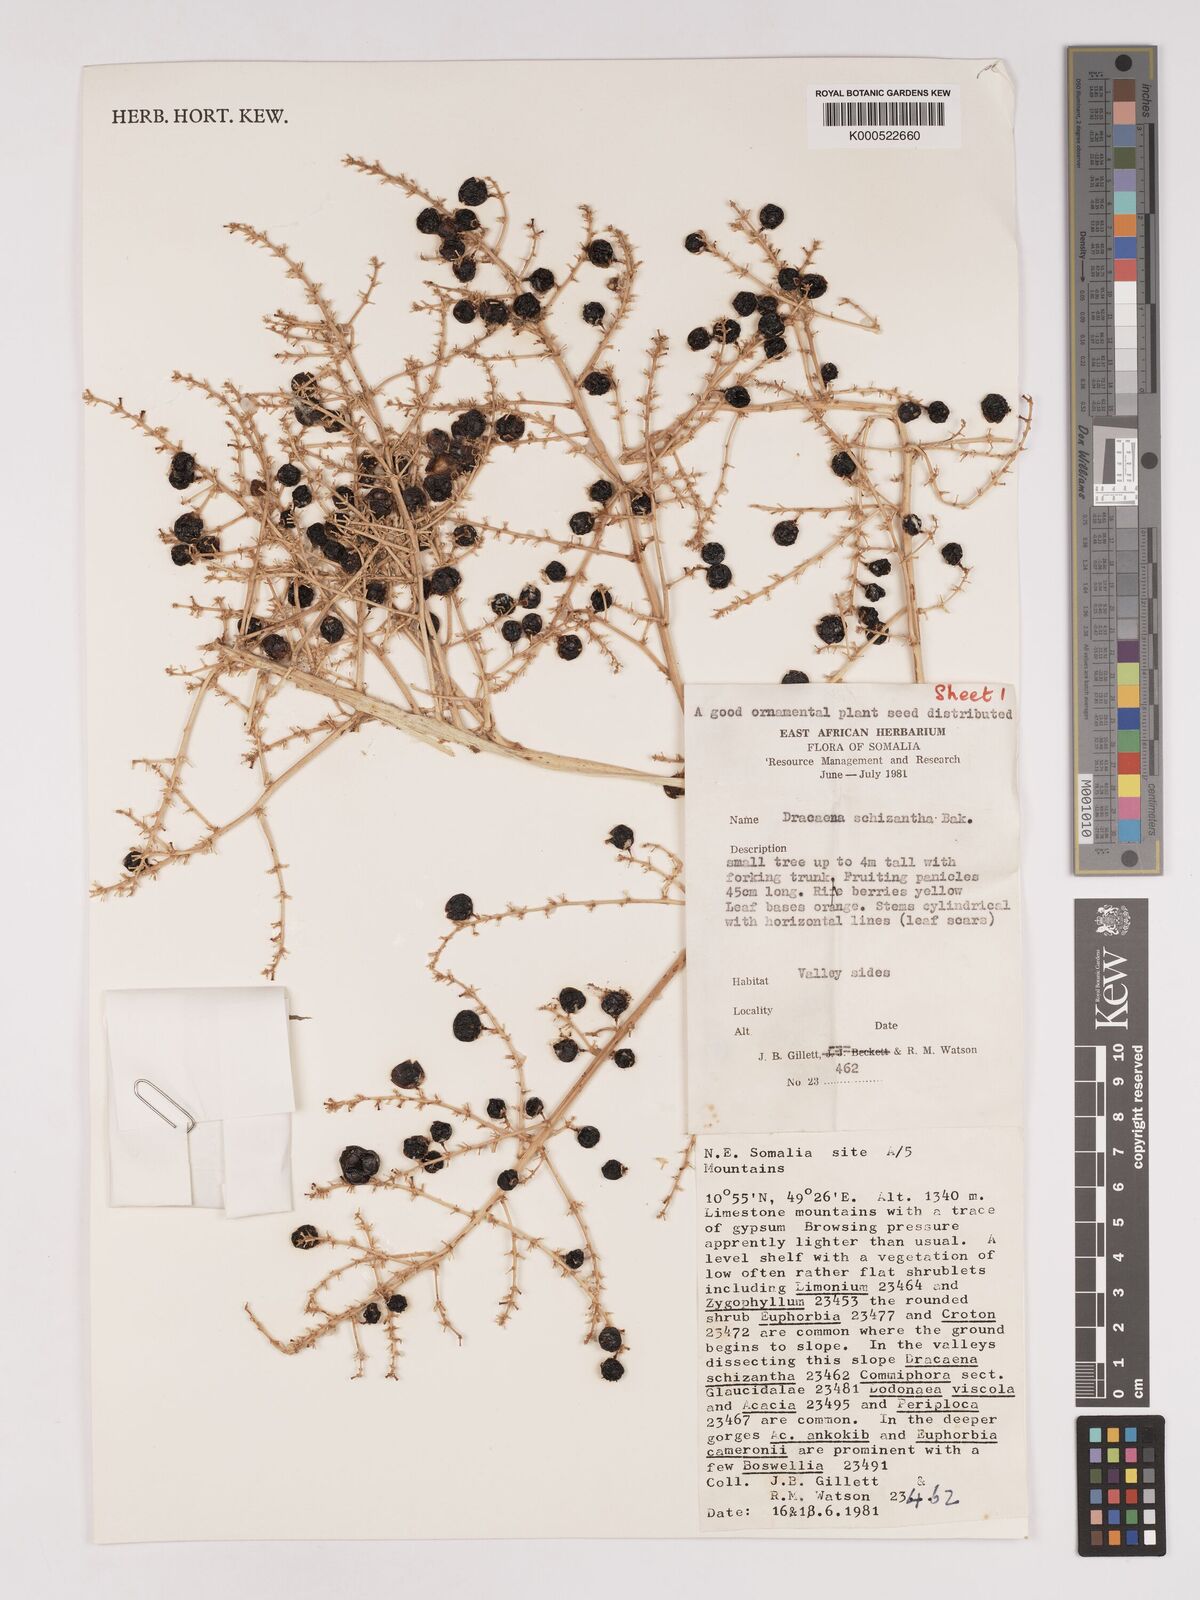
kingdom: Plantae
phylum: Tracheophyta
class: Liliopsida
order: Asparagales
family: Asparagaceae
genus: Dracaena
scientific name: Dracaena ombet
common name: Gabal elba dragon tree
